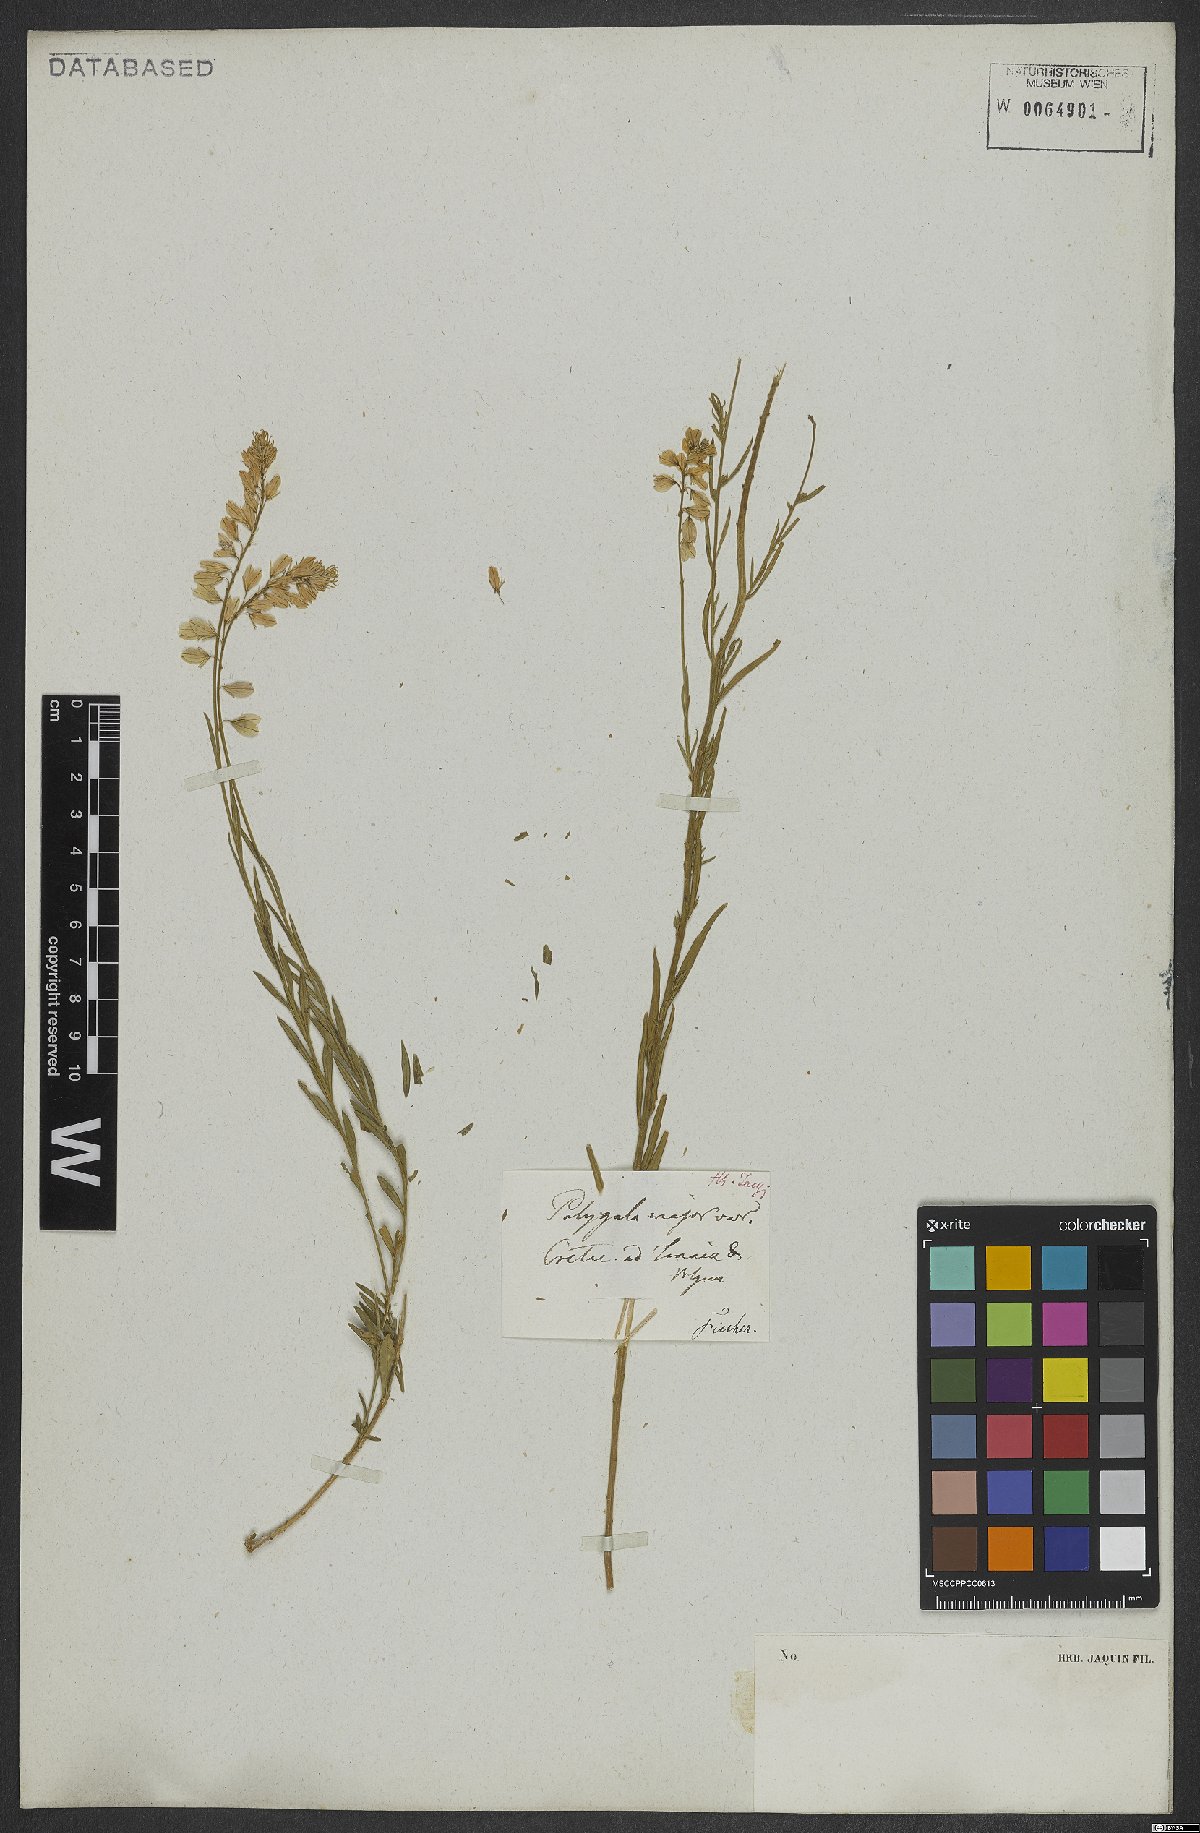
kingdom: Plantae
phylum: Tracheophyta
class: Magnoliopsida
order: Fabales
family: Polygalaceae
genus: Polygala
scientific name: Polygala major
